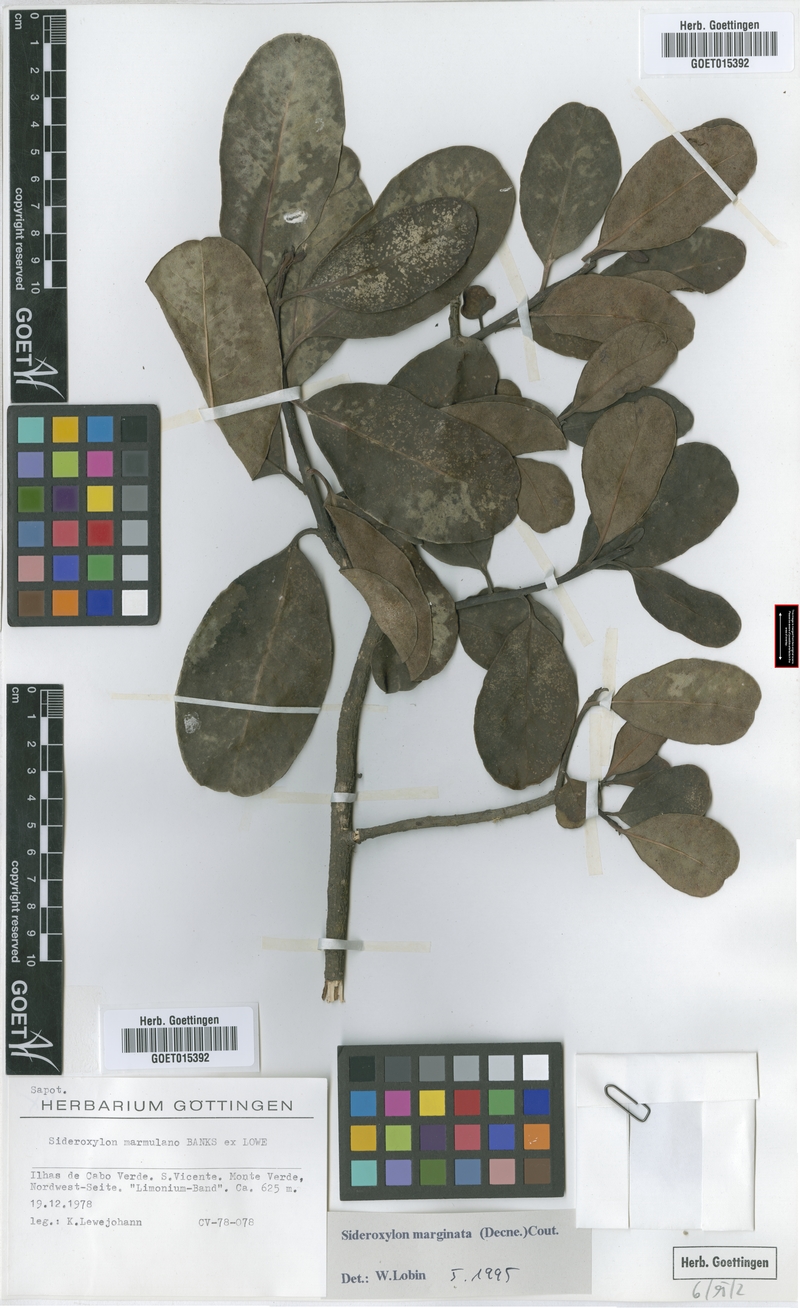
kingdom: Plantae
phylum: Tracheophyta
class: Magnoliopsida
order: Ericales
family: Sapotaceae
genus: Sideroxylon
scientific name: Sideroxylon marginatum
